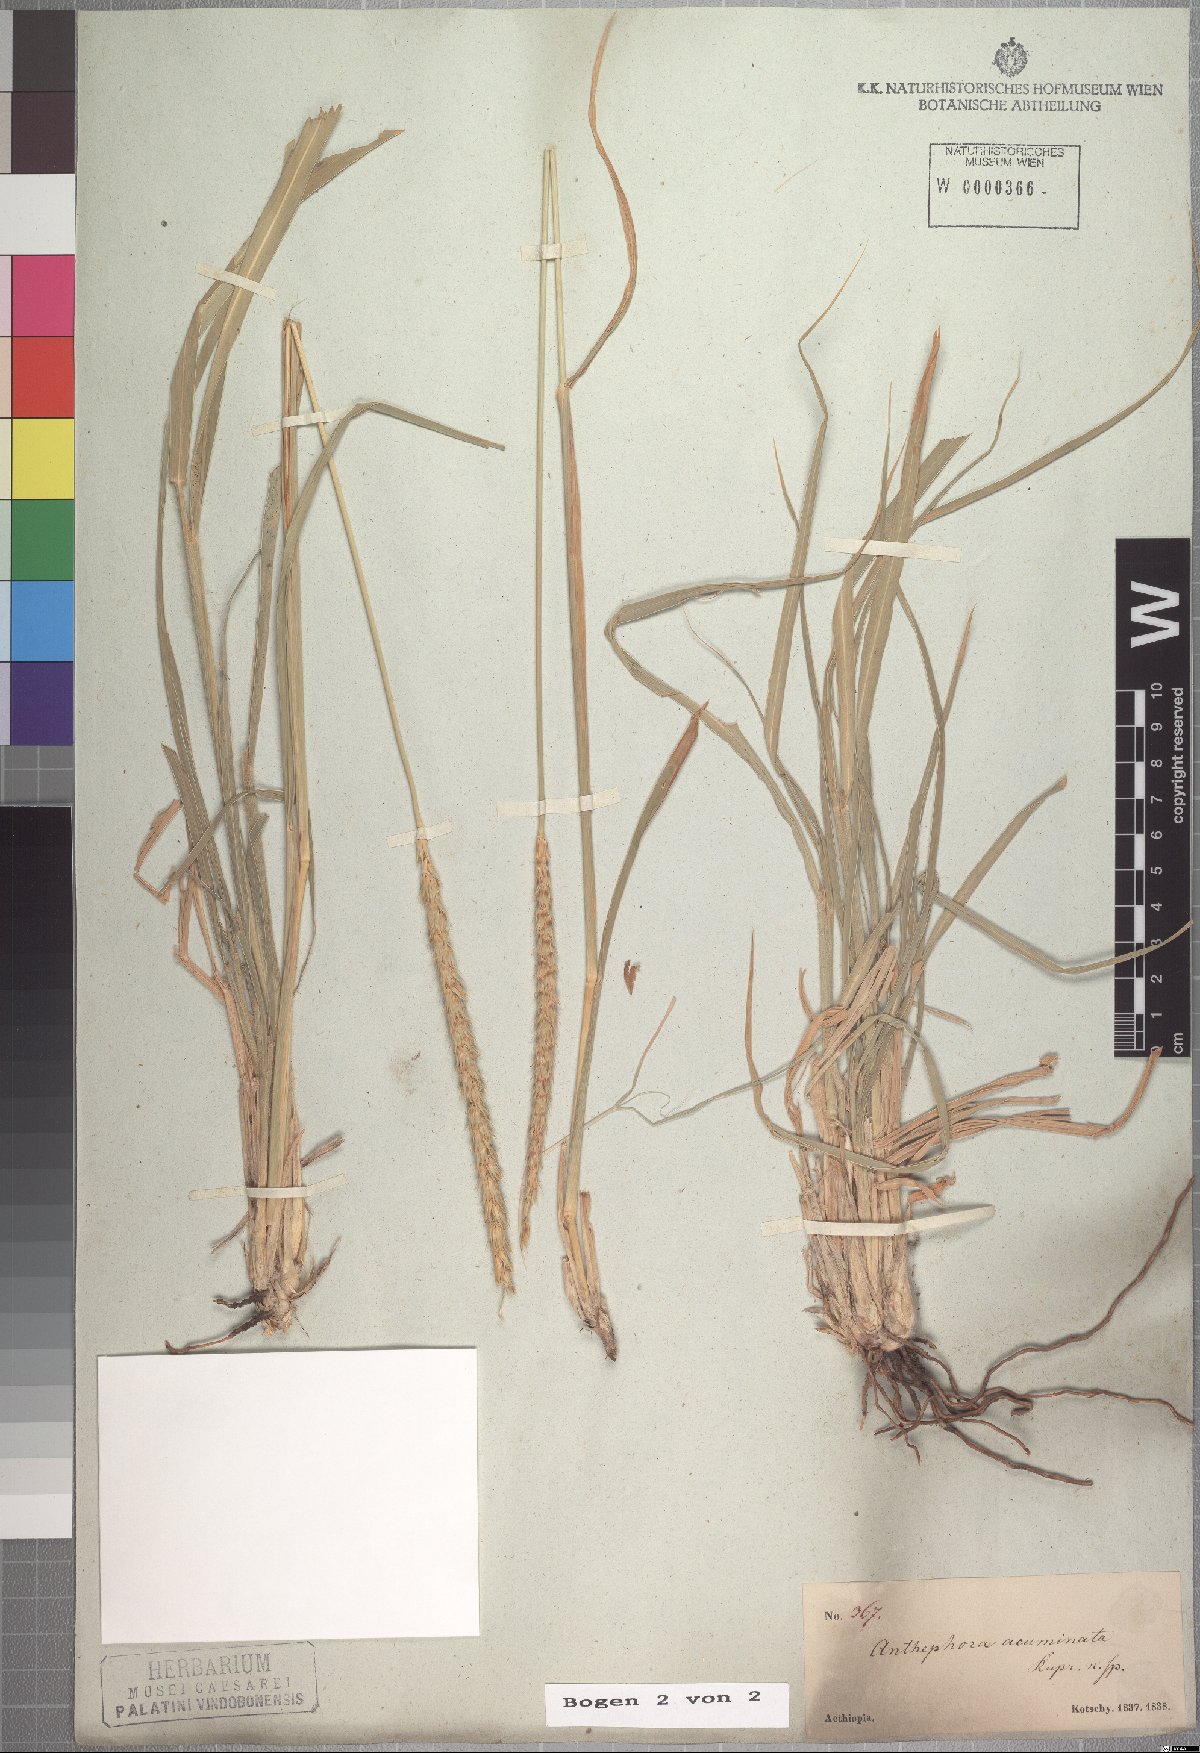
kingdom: Plantae
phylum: Tracheophyta
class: Liliopsida
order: Poales
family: Poaceae
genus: Anthephora
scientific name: Anthephora pubescens
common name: Wool grass
